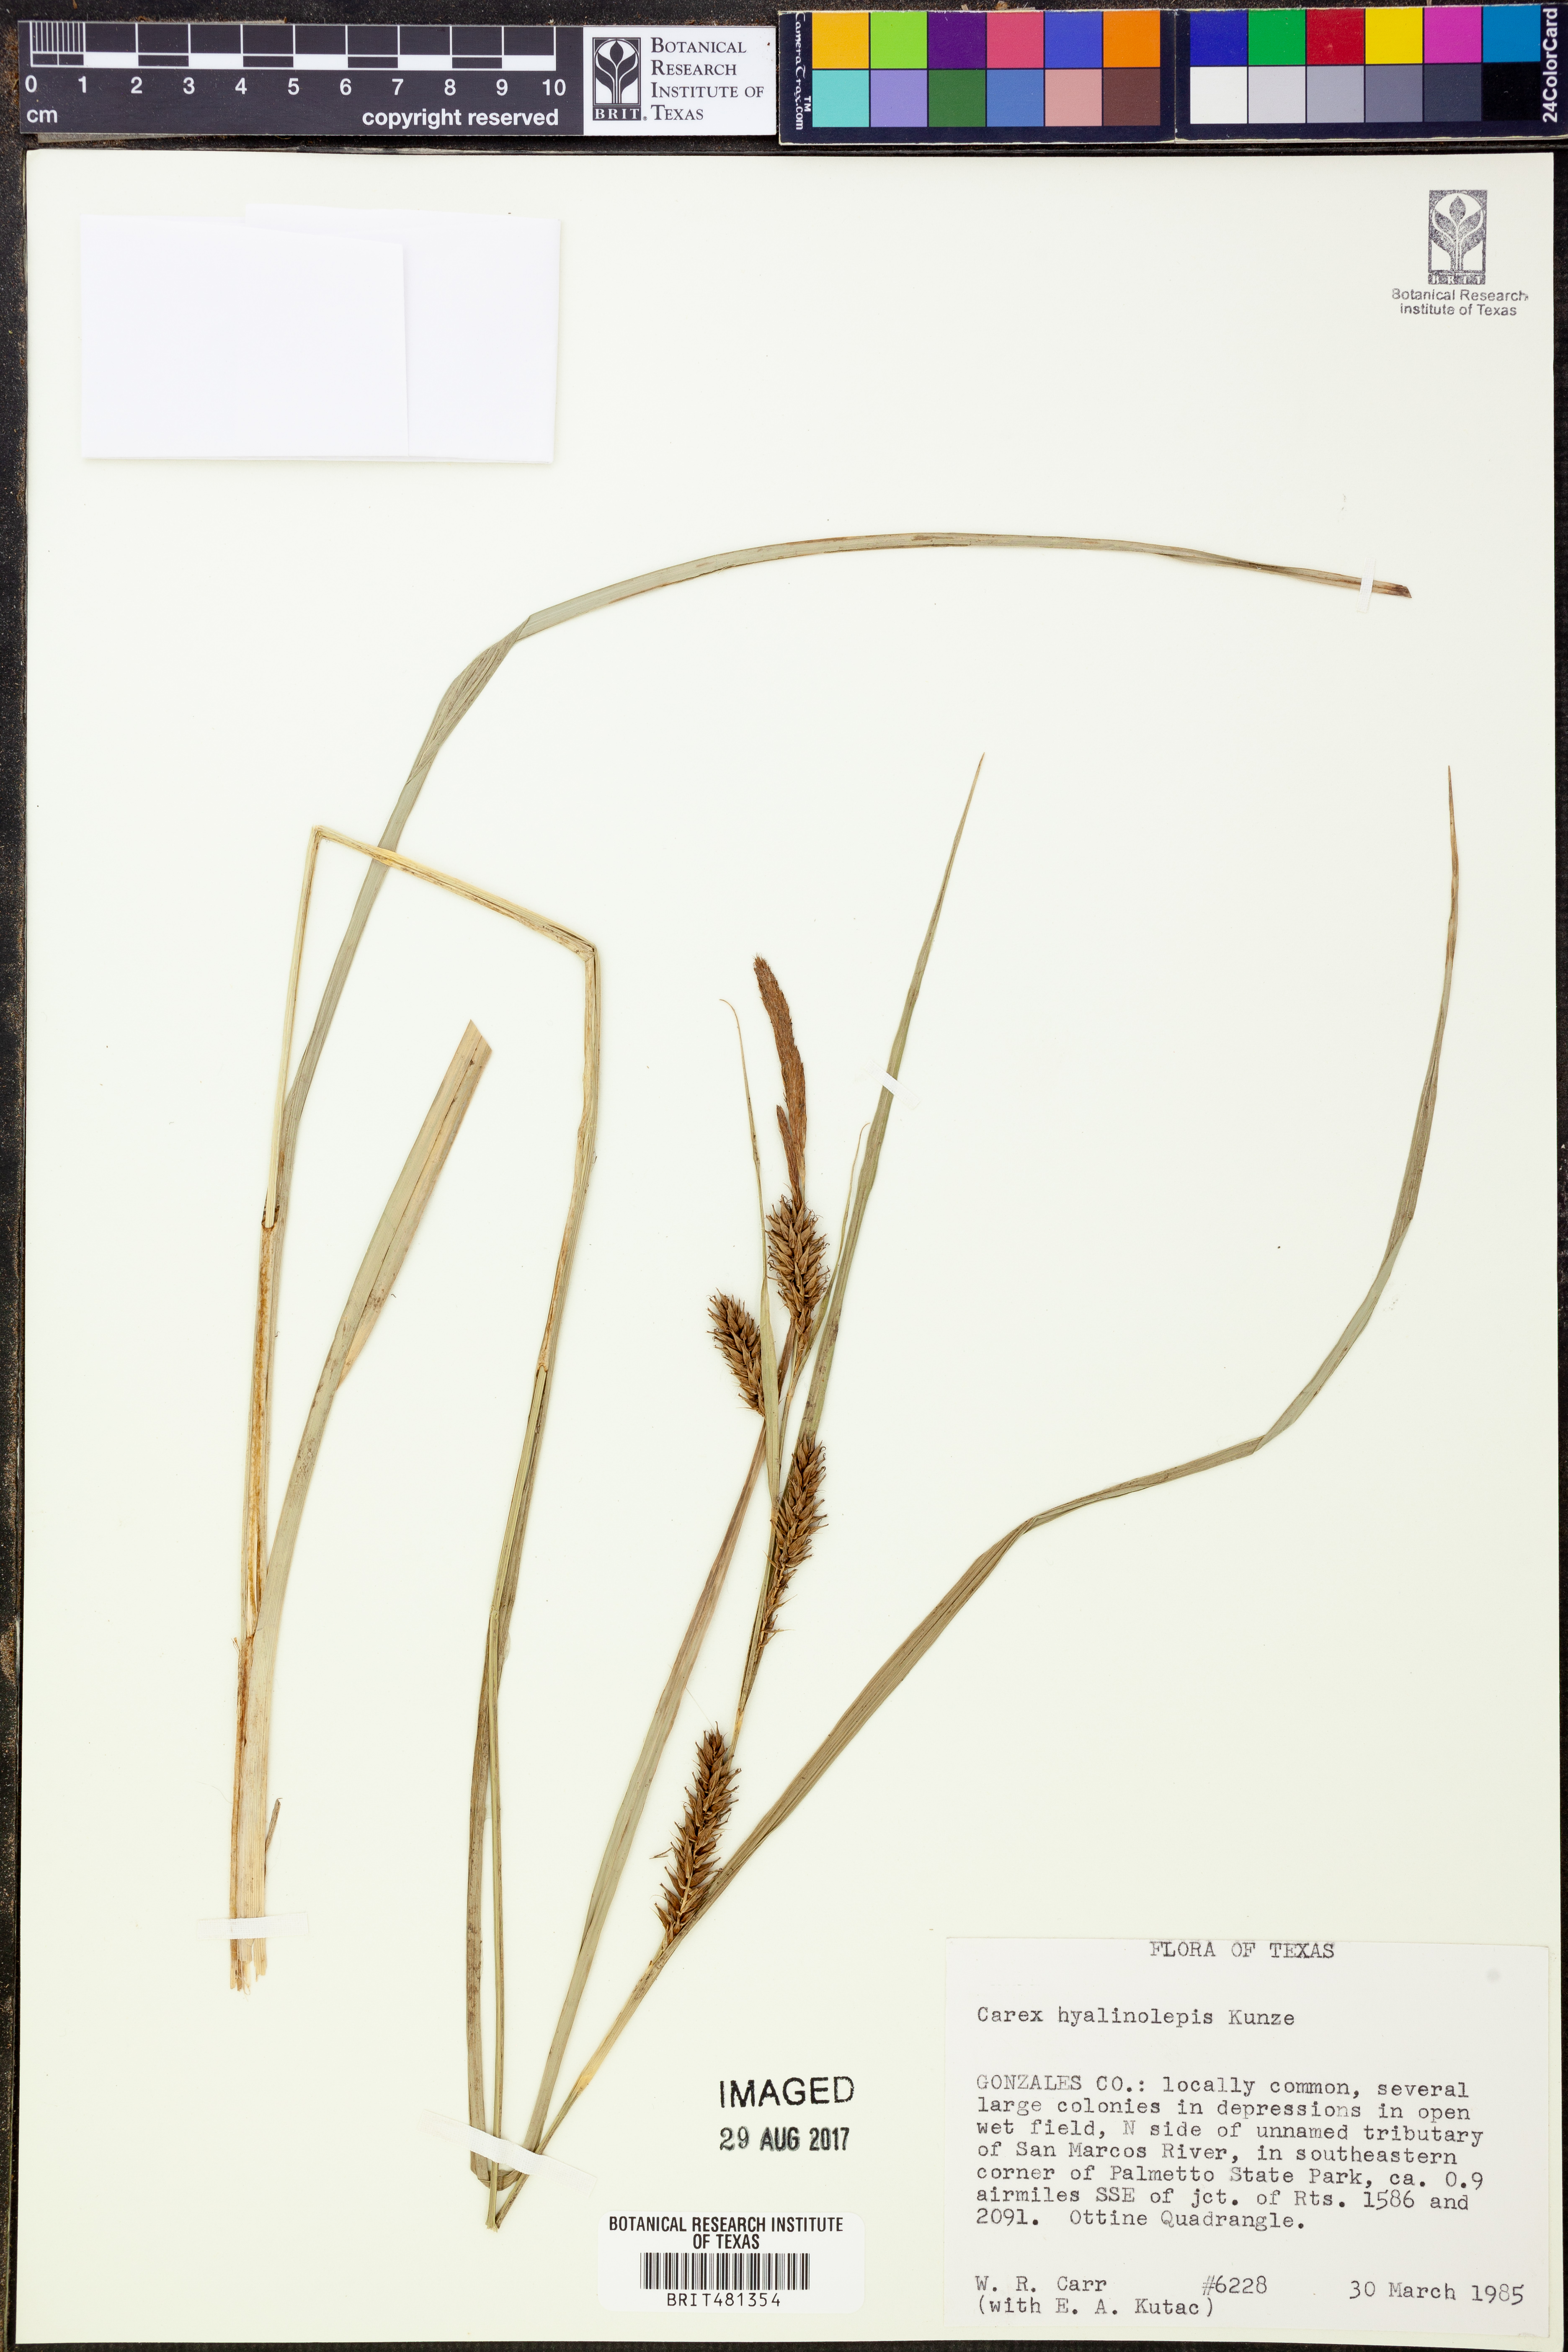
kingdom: Plantae
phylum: Tracheophyta
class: Liliopsida
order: Poales
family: Cyperaceae
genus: Carex
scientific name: Carex hyalinolepis
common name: Shoreline sedge
